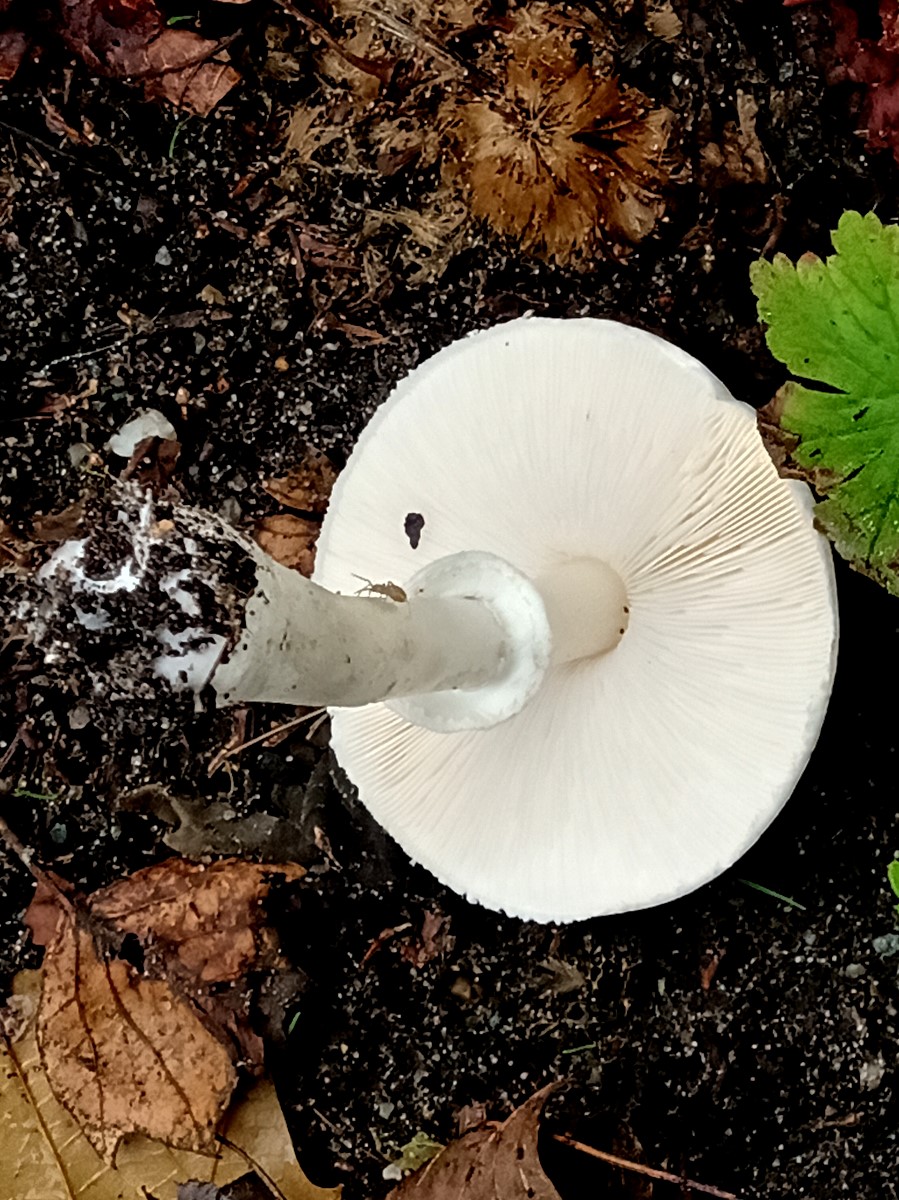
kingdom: Fungi
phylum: Basidiomycota
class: Agaricomycetes
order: Agaricales
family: Agaricaceae
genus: Leucoagaricus
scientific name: Leucoagaricus leucothites
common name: rosabladet silkehat
